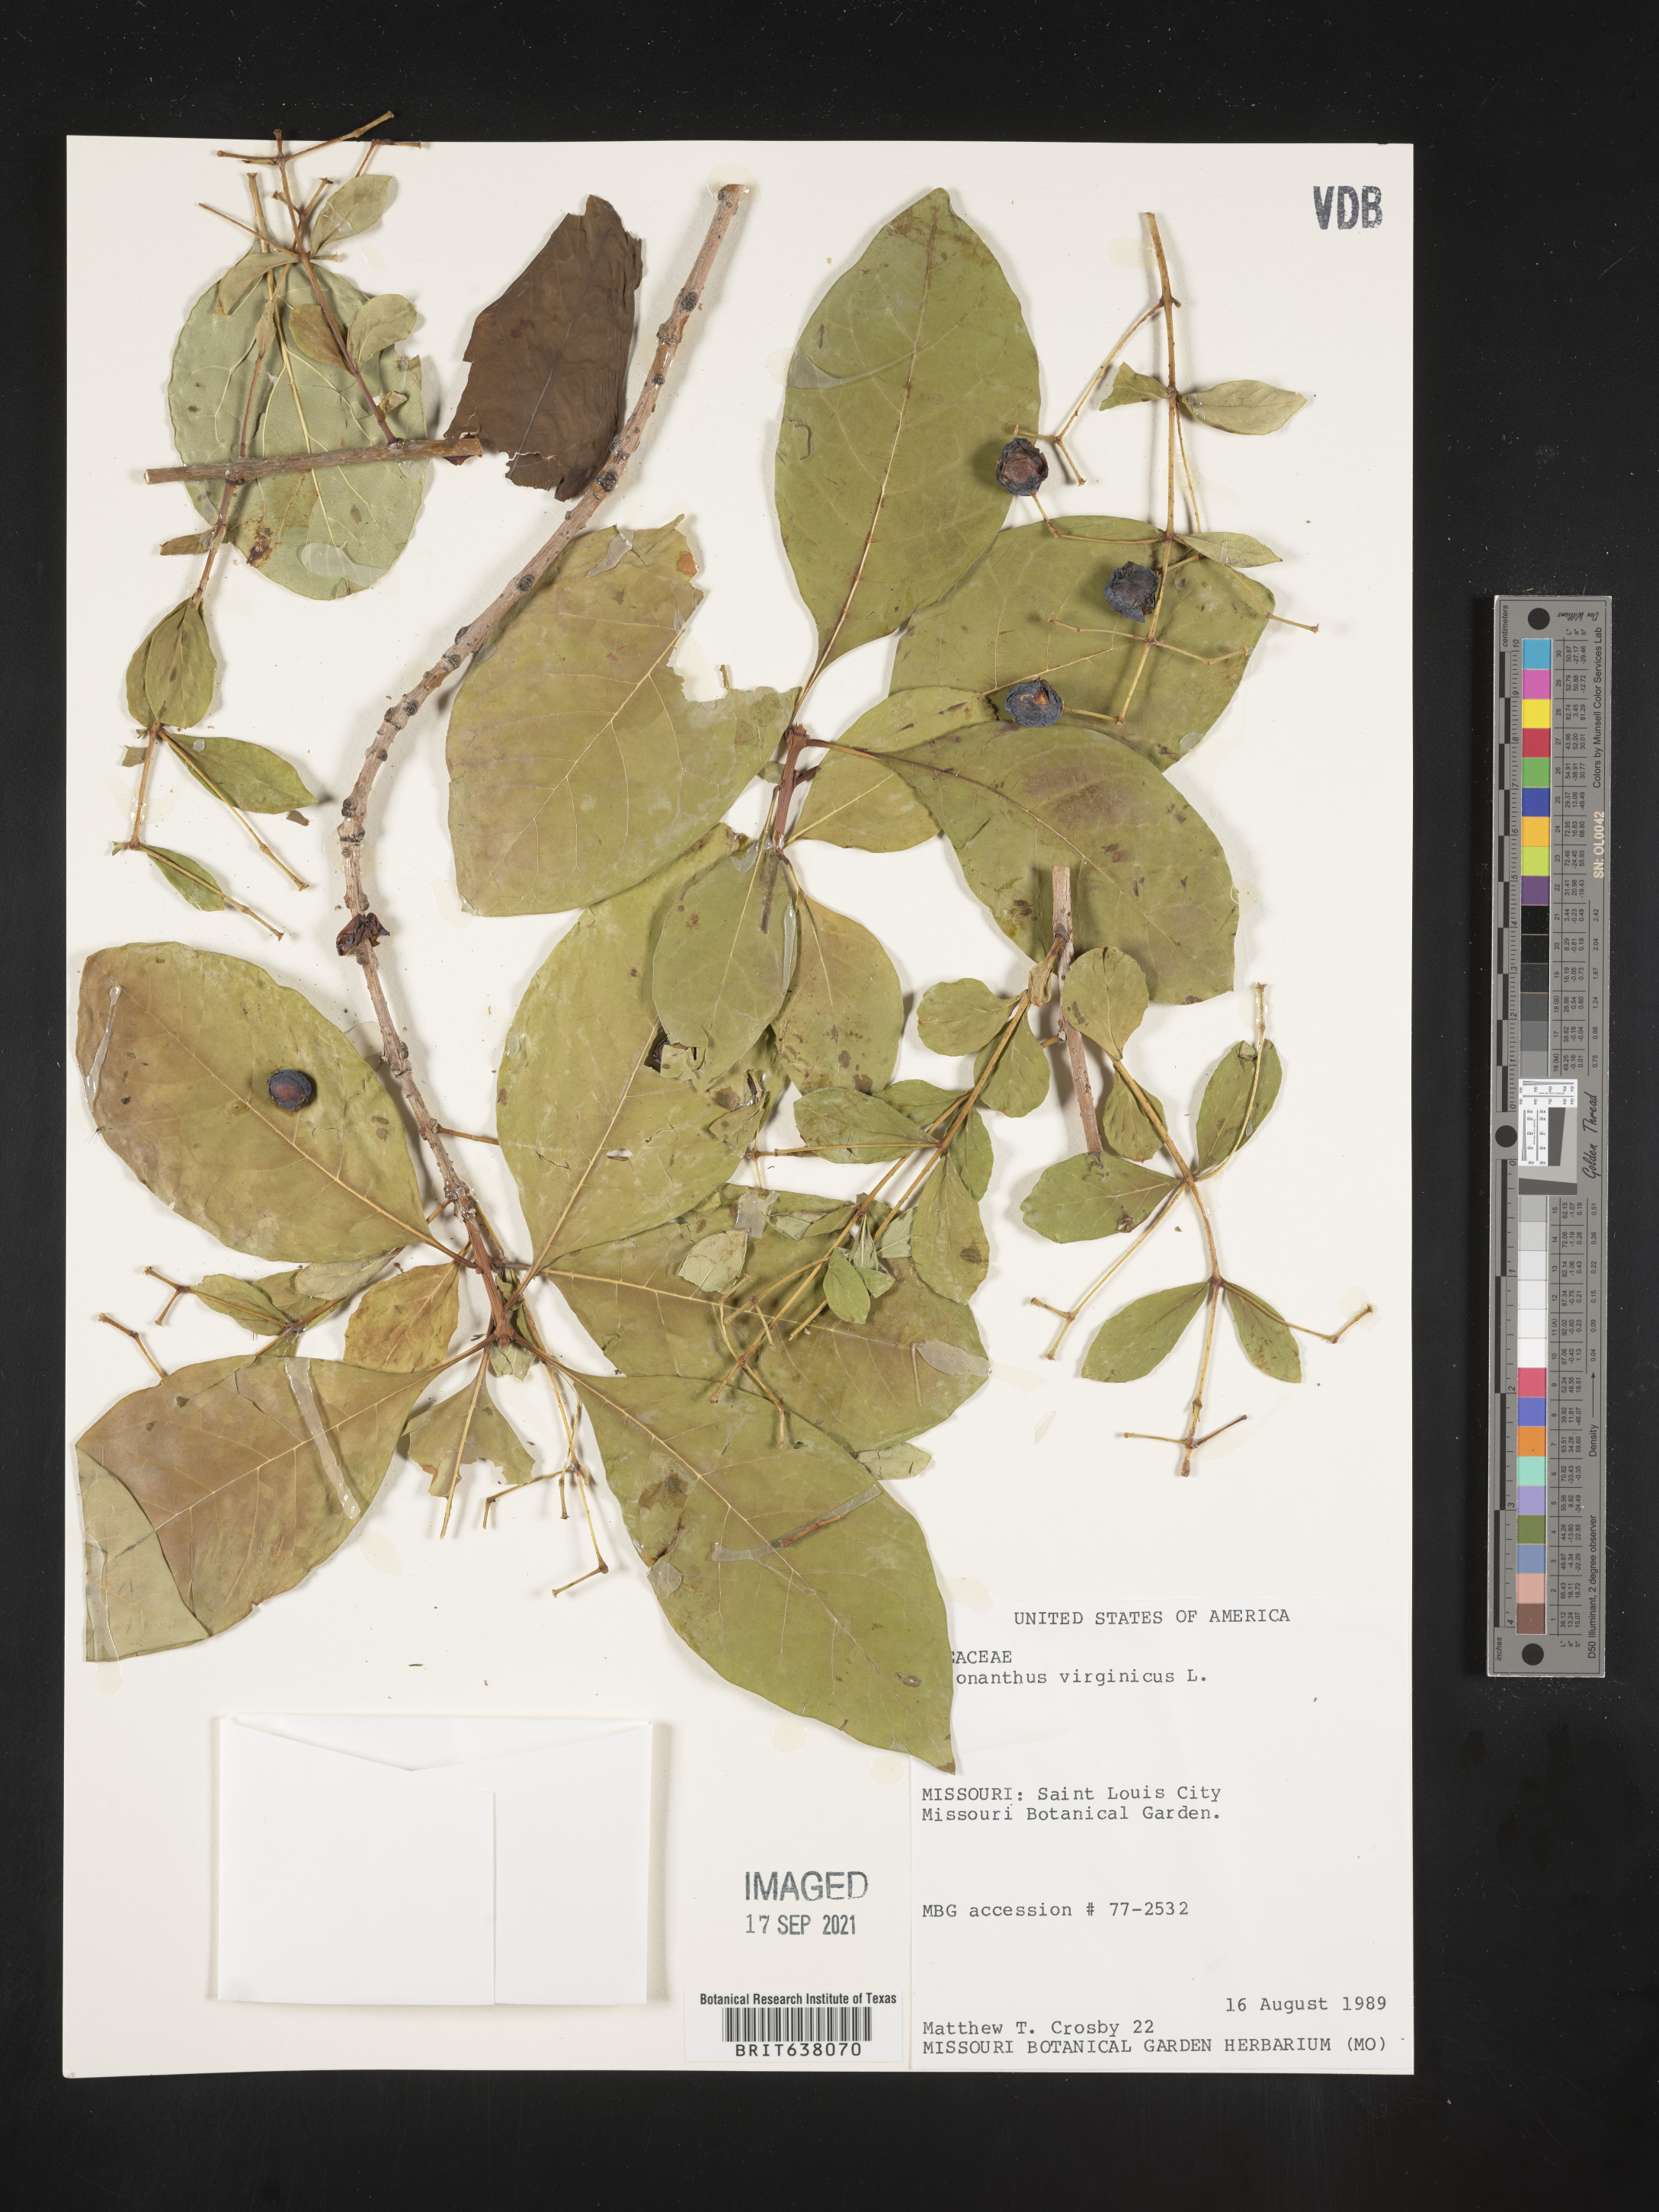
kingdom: Plantae
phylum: Tracheophyta
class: Magnoliopsida
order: Lamiales
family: Oleaceae
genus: Chionanthus
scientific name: Chionanthus
